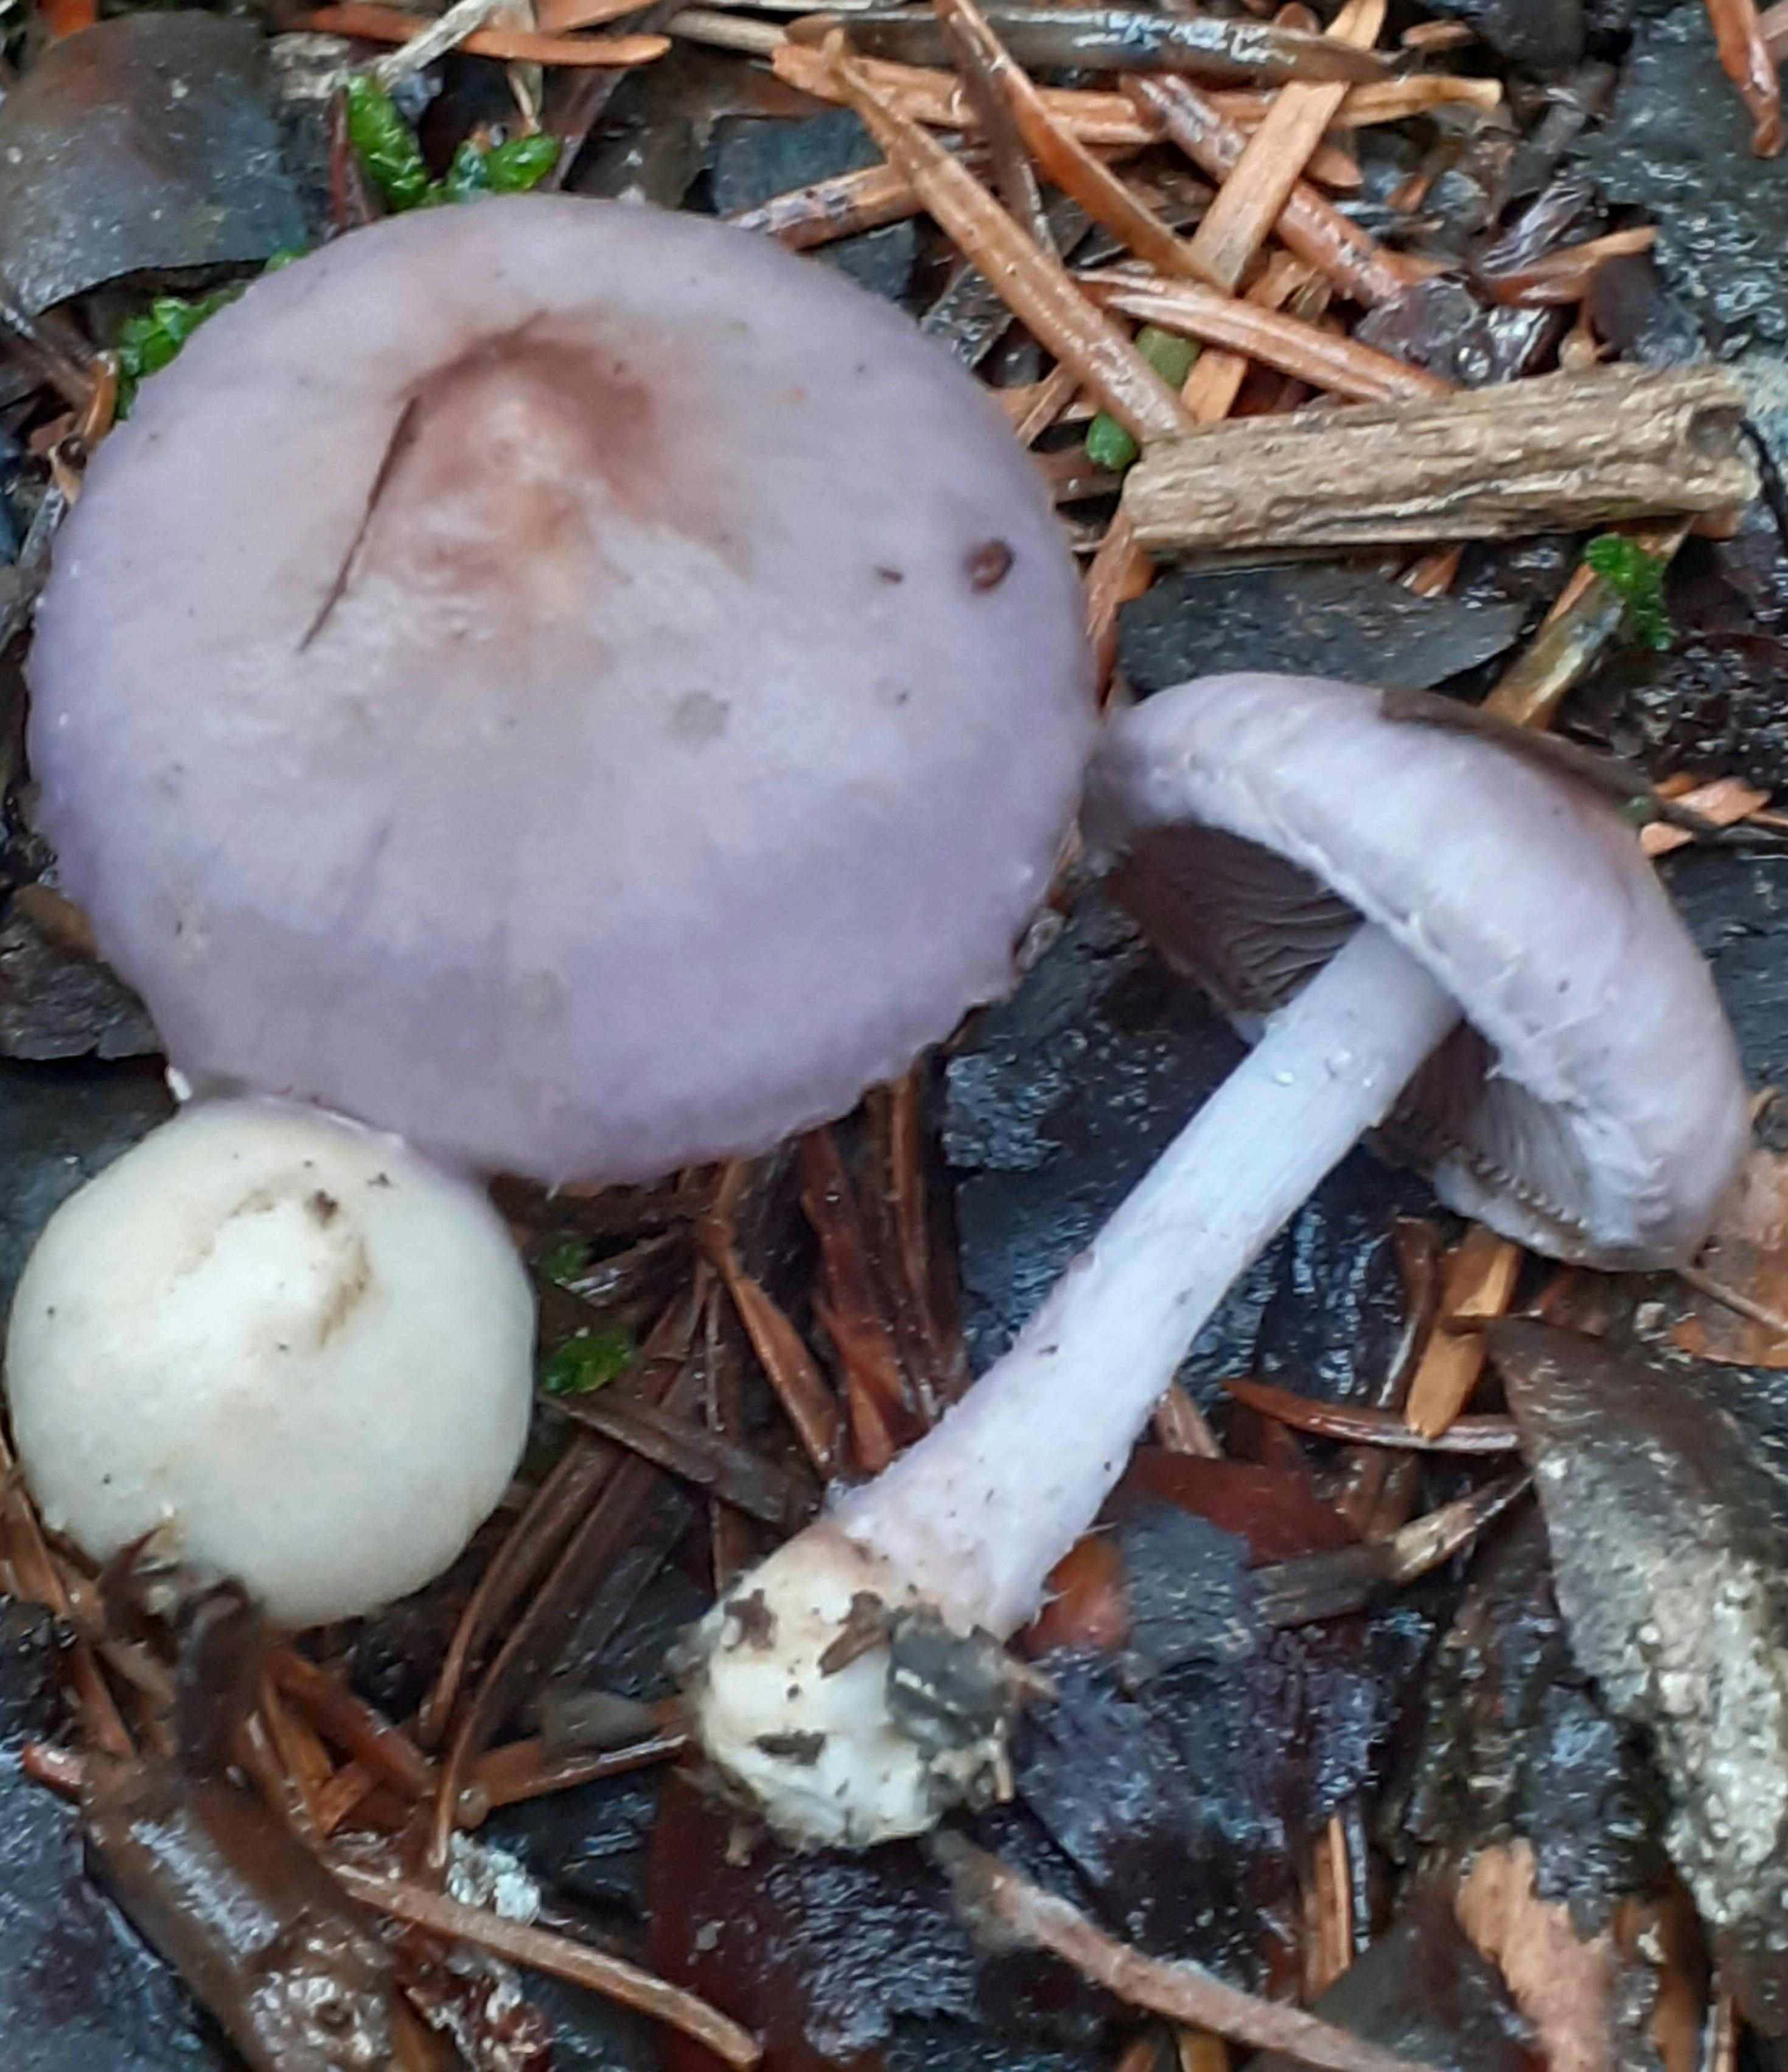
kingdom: Fungi
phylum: Basidiomycota
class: Agaricomycetes
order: Agaricales
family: Inocybaceae
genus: Inocybe
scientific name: Inocybe geophylla
